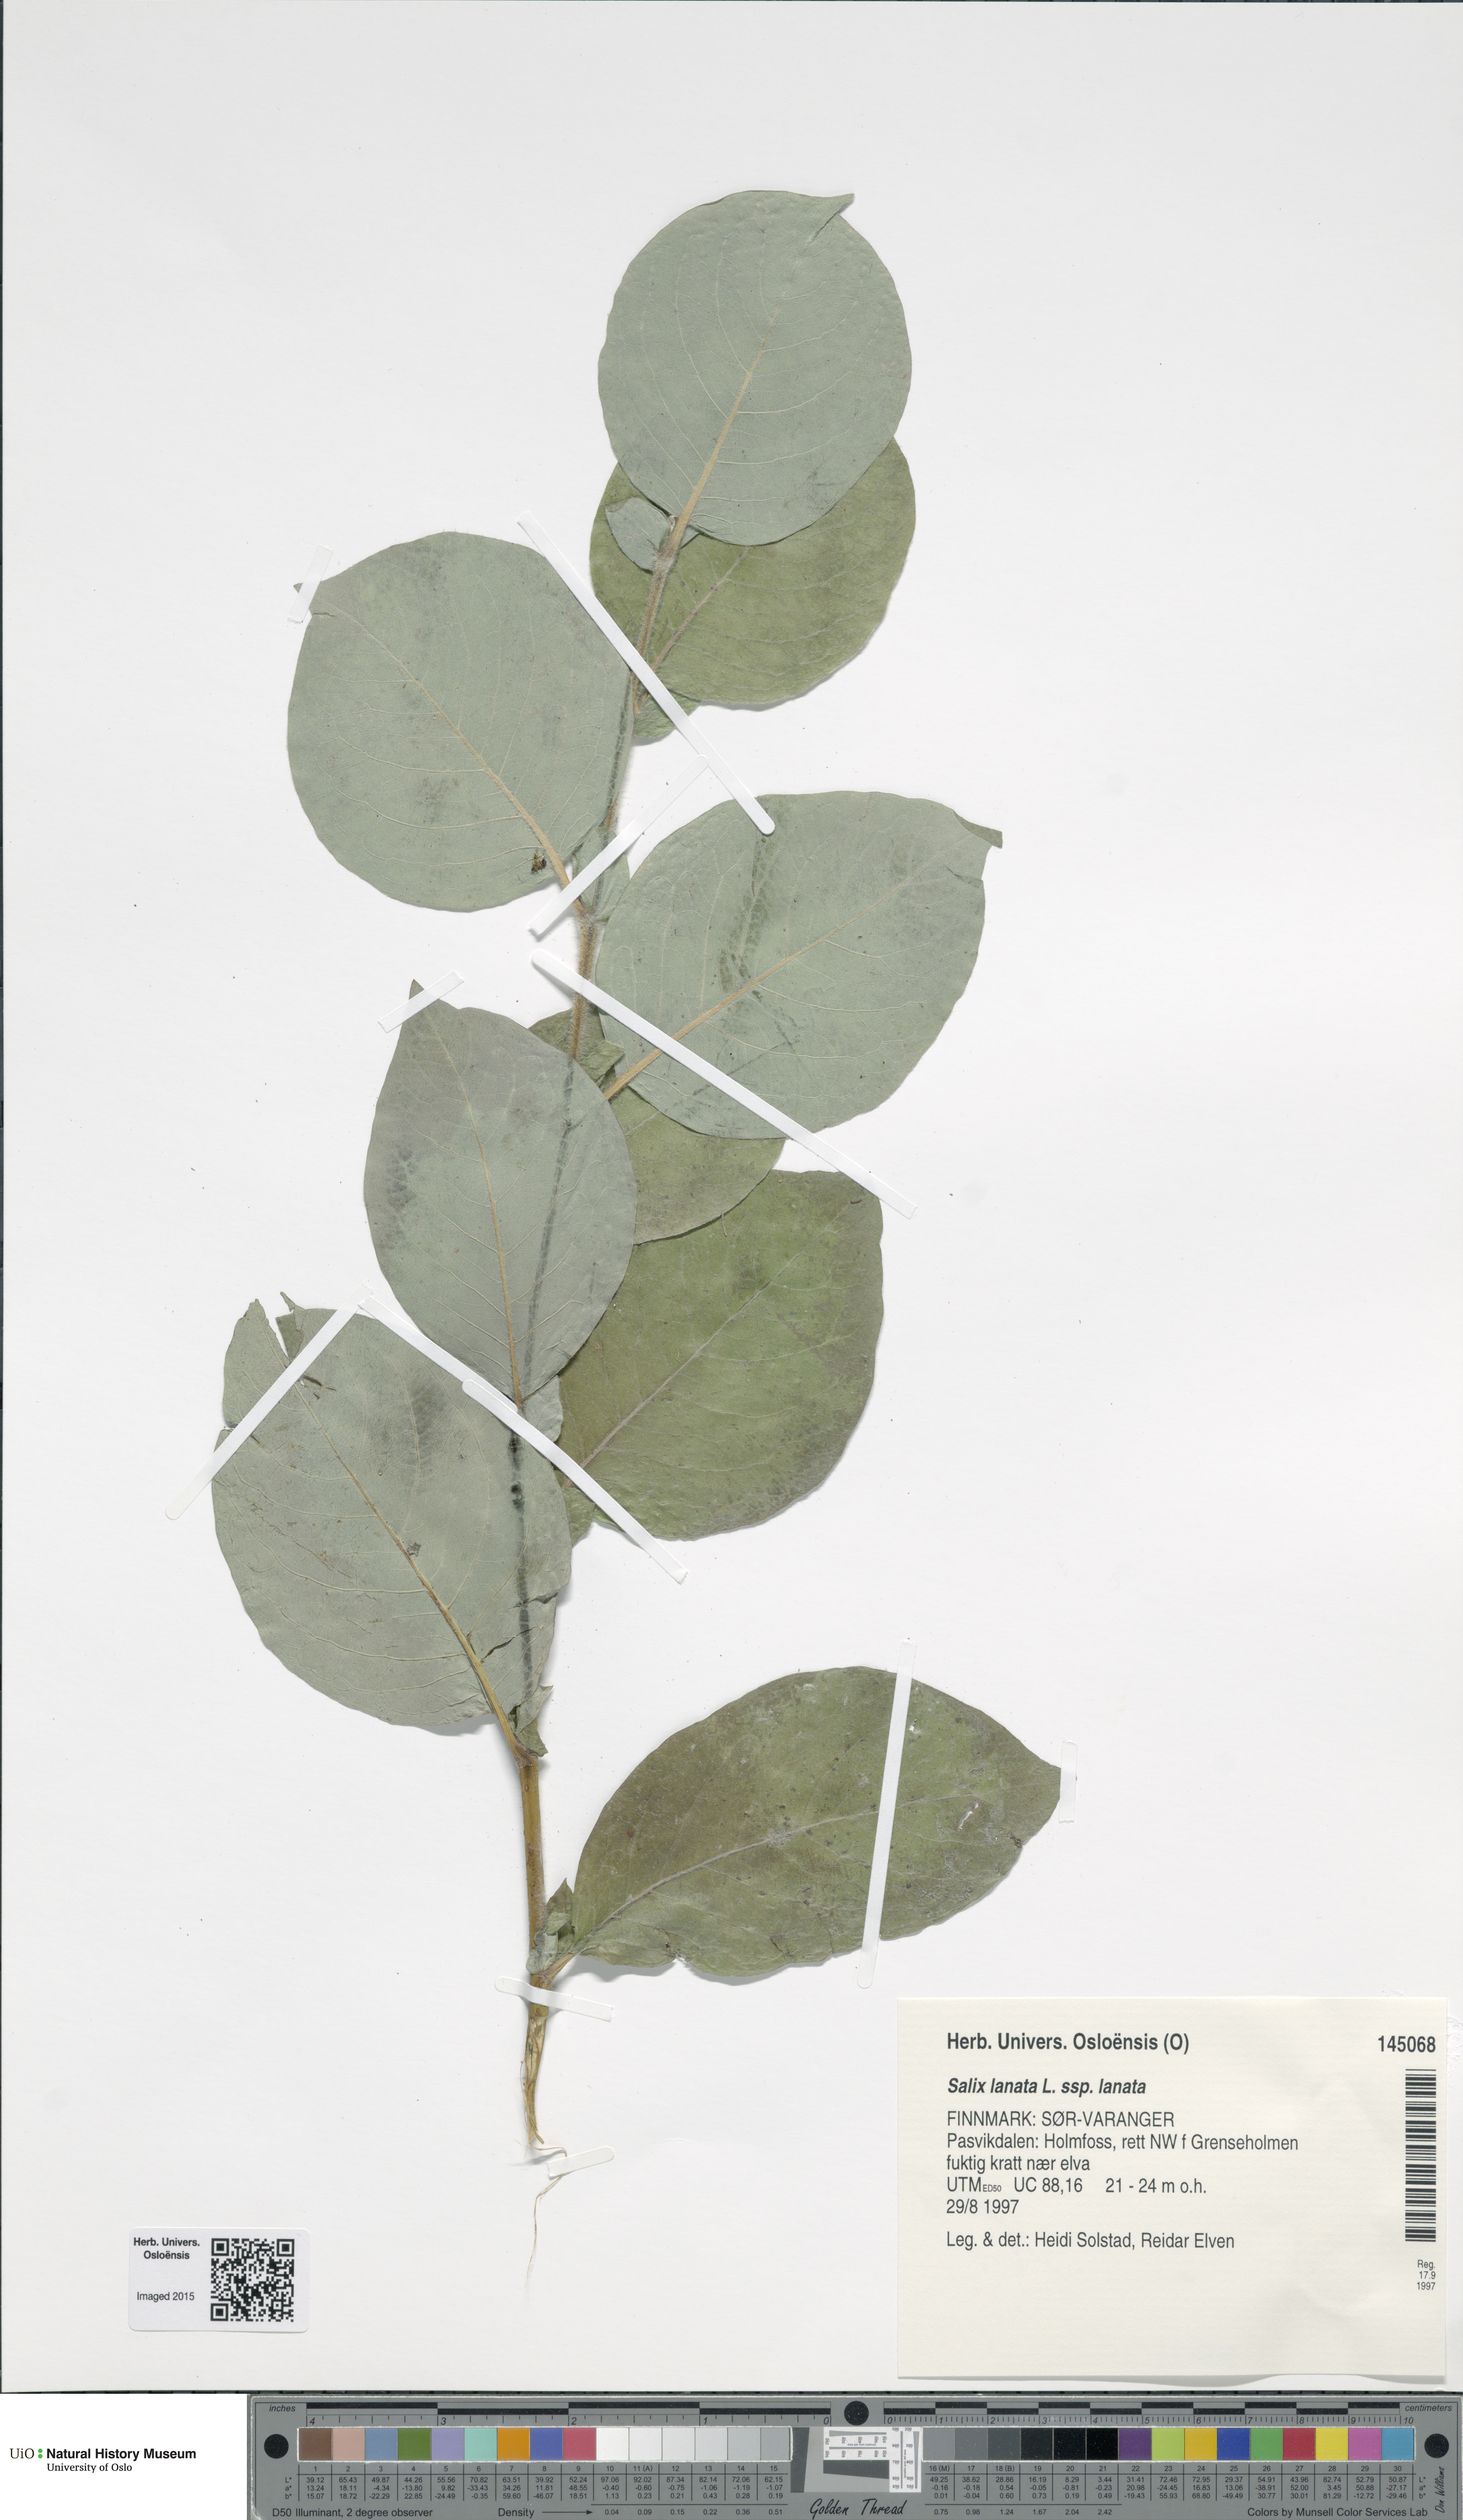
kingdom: Plantae
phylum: Tracheophyta
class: Magnoliopsida
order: Malpighiales
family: Salicaceae
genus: Salix
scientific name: Salix lanata
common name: Woolly willow
